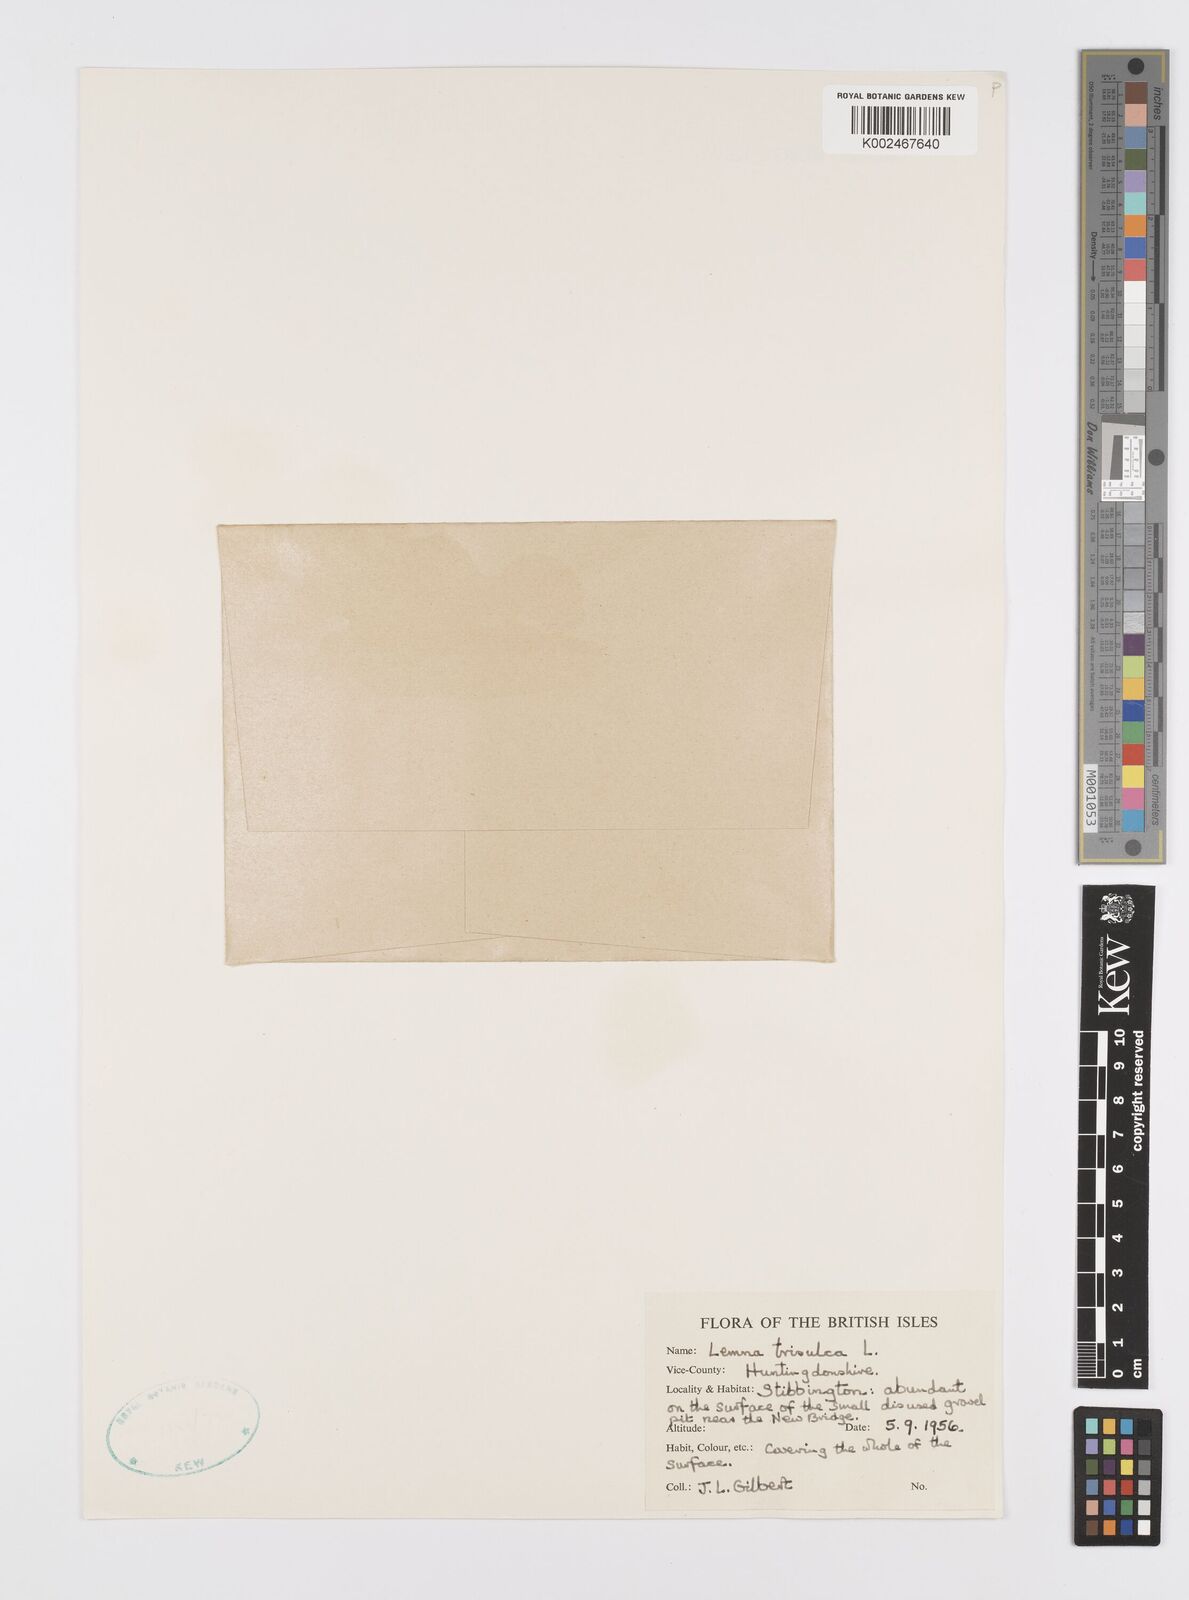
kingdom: Plantae
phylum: Tracheophyta
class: Liliopsida
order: Alismatales
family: Araceae
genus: Lemna
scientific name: Lemna trisulca
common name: Ivy-leaved duckweed
